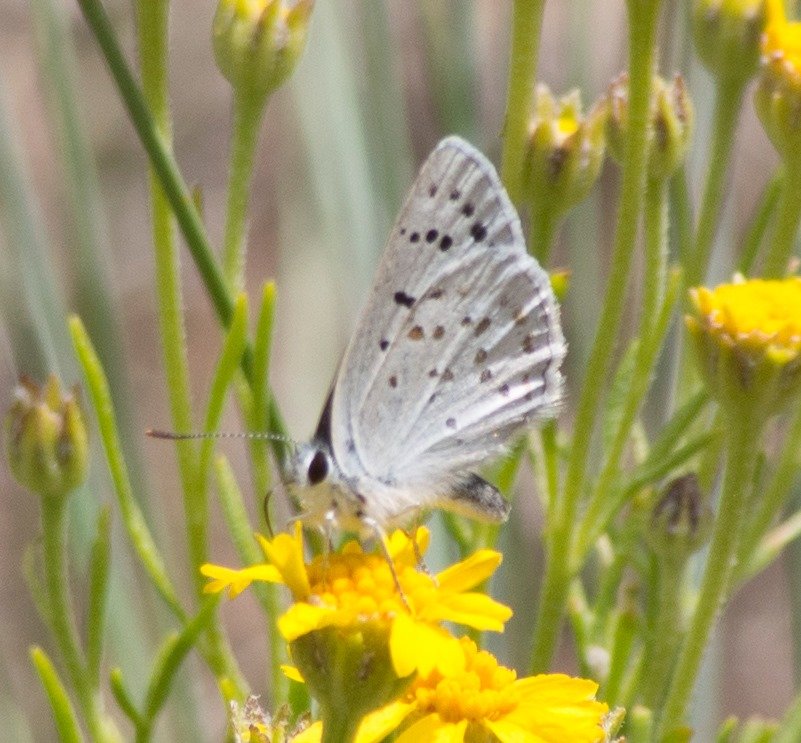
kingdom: Animalia
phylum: Arthropoda
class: Insecta
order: Lepidoptera
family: Lycaenidae
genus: Lycaena
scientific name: Lycaena heteronea
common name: Blue Copper
